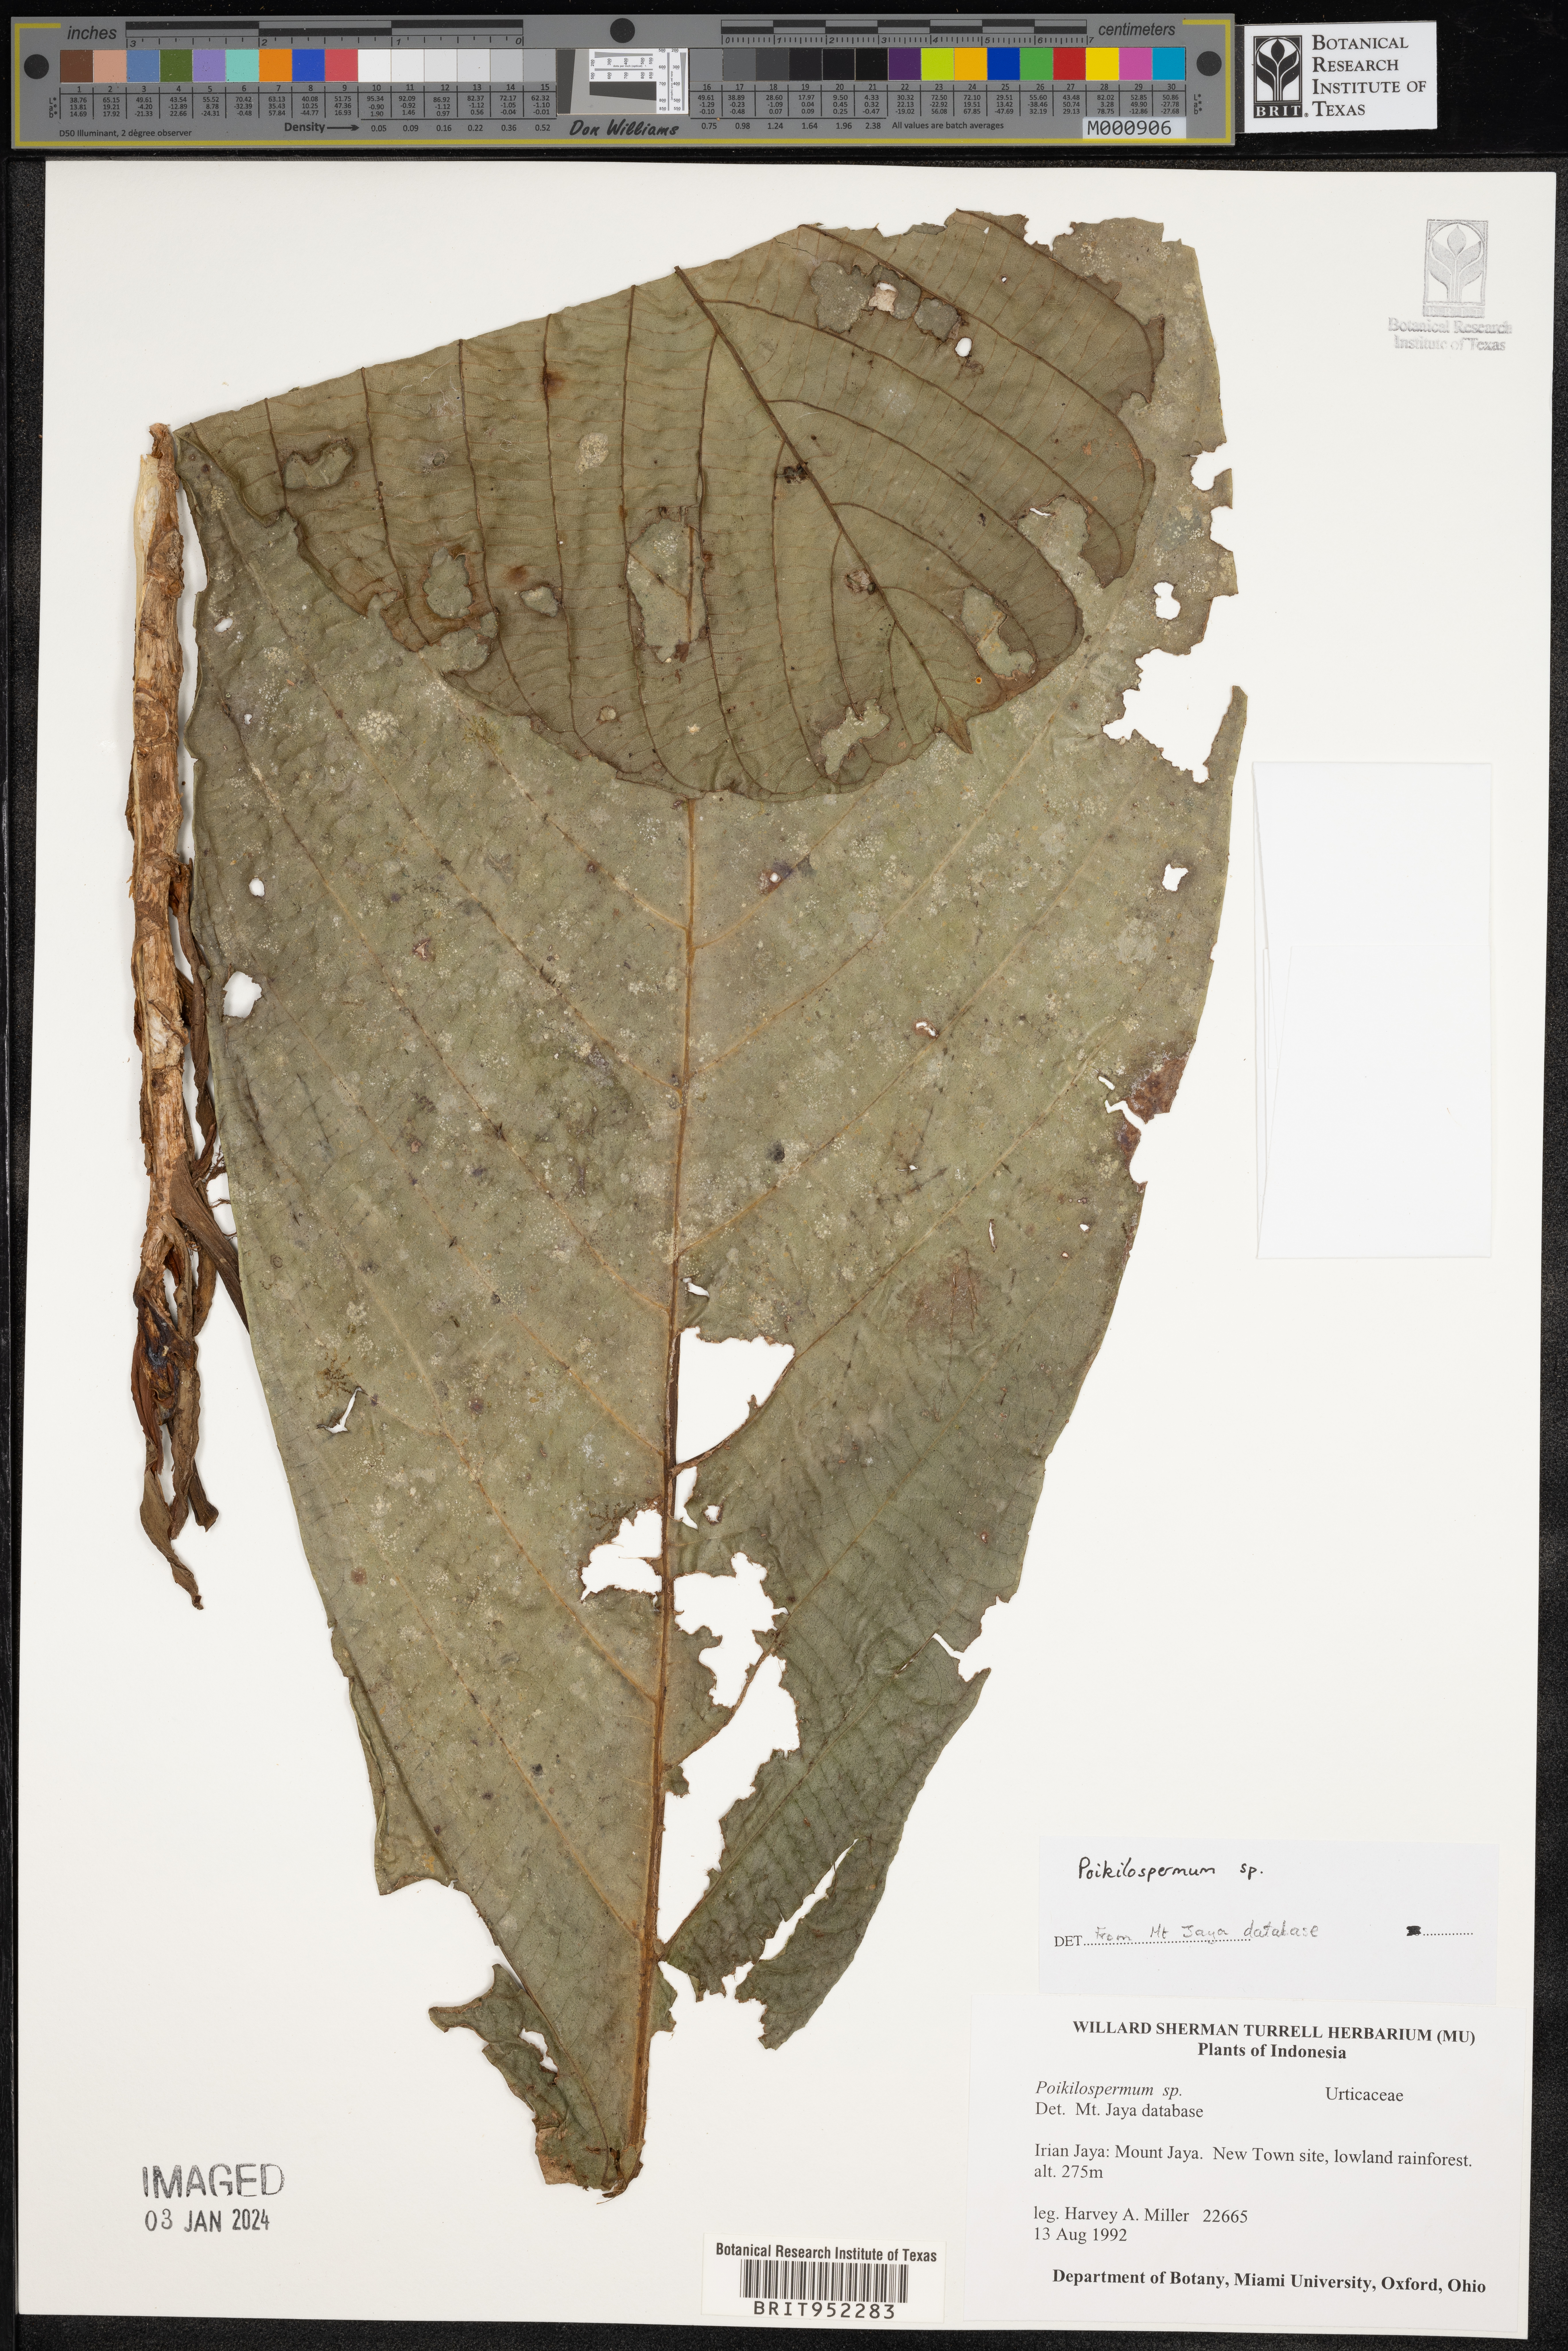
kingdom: Plantae
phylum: Tracheophyta
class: Magnoliopsida
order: Rosales
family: Urticaceae
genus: Poikilospermum
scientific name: Poikilospermum
